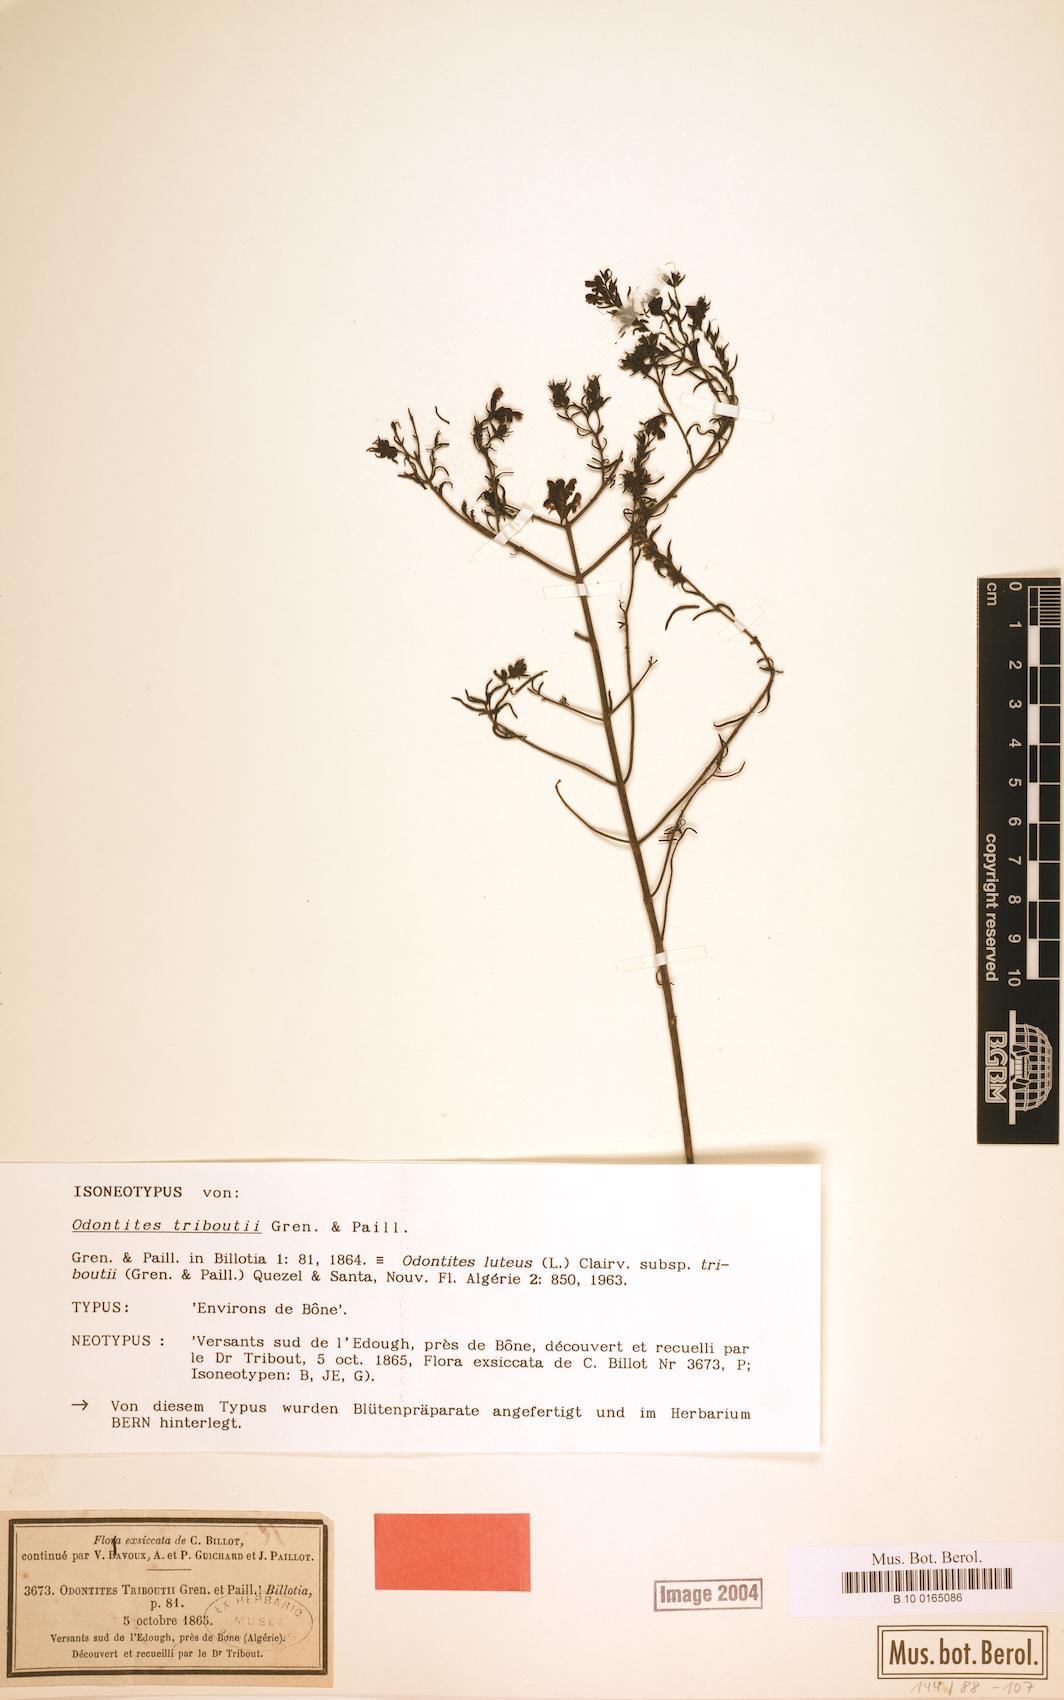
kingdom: Plantae
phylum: Tracheophyta
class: Magnoliopsida
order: Lamiales
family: Orobanchaceae
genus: Odontites
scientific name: Odontites triboutii
